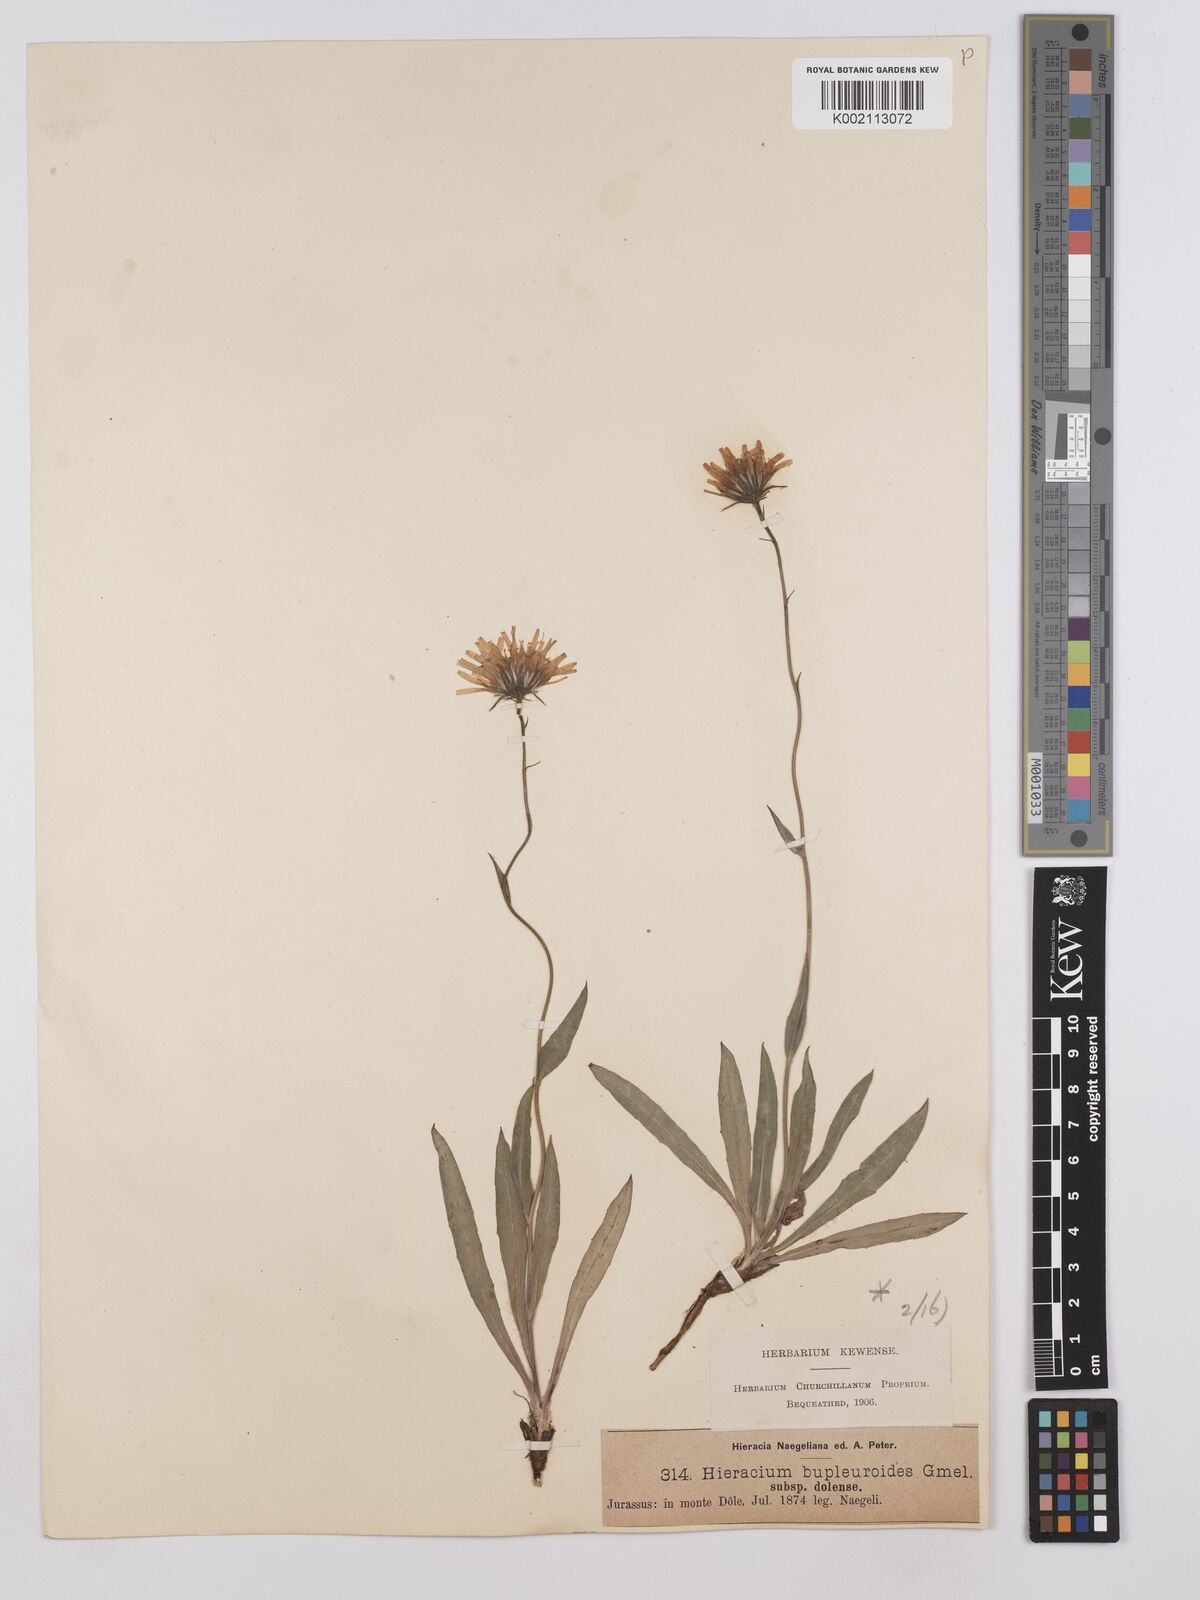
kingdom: Plantae
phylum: Tracheophyta
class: Magnoliopsida
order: Asterales
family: Asteraceae
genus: Hieracium
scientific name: Hieracium bupleuroides
